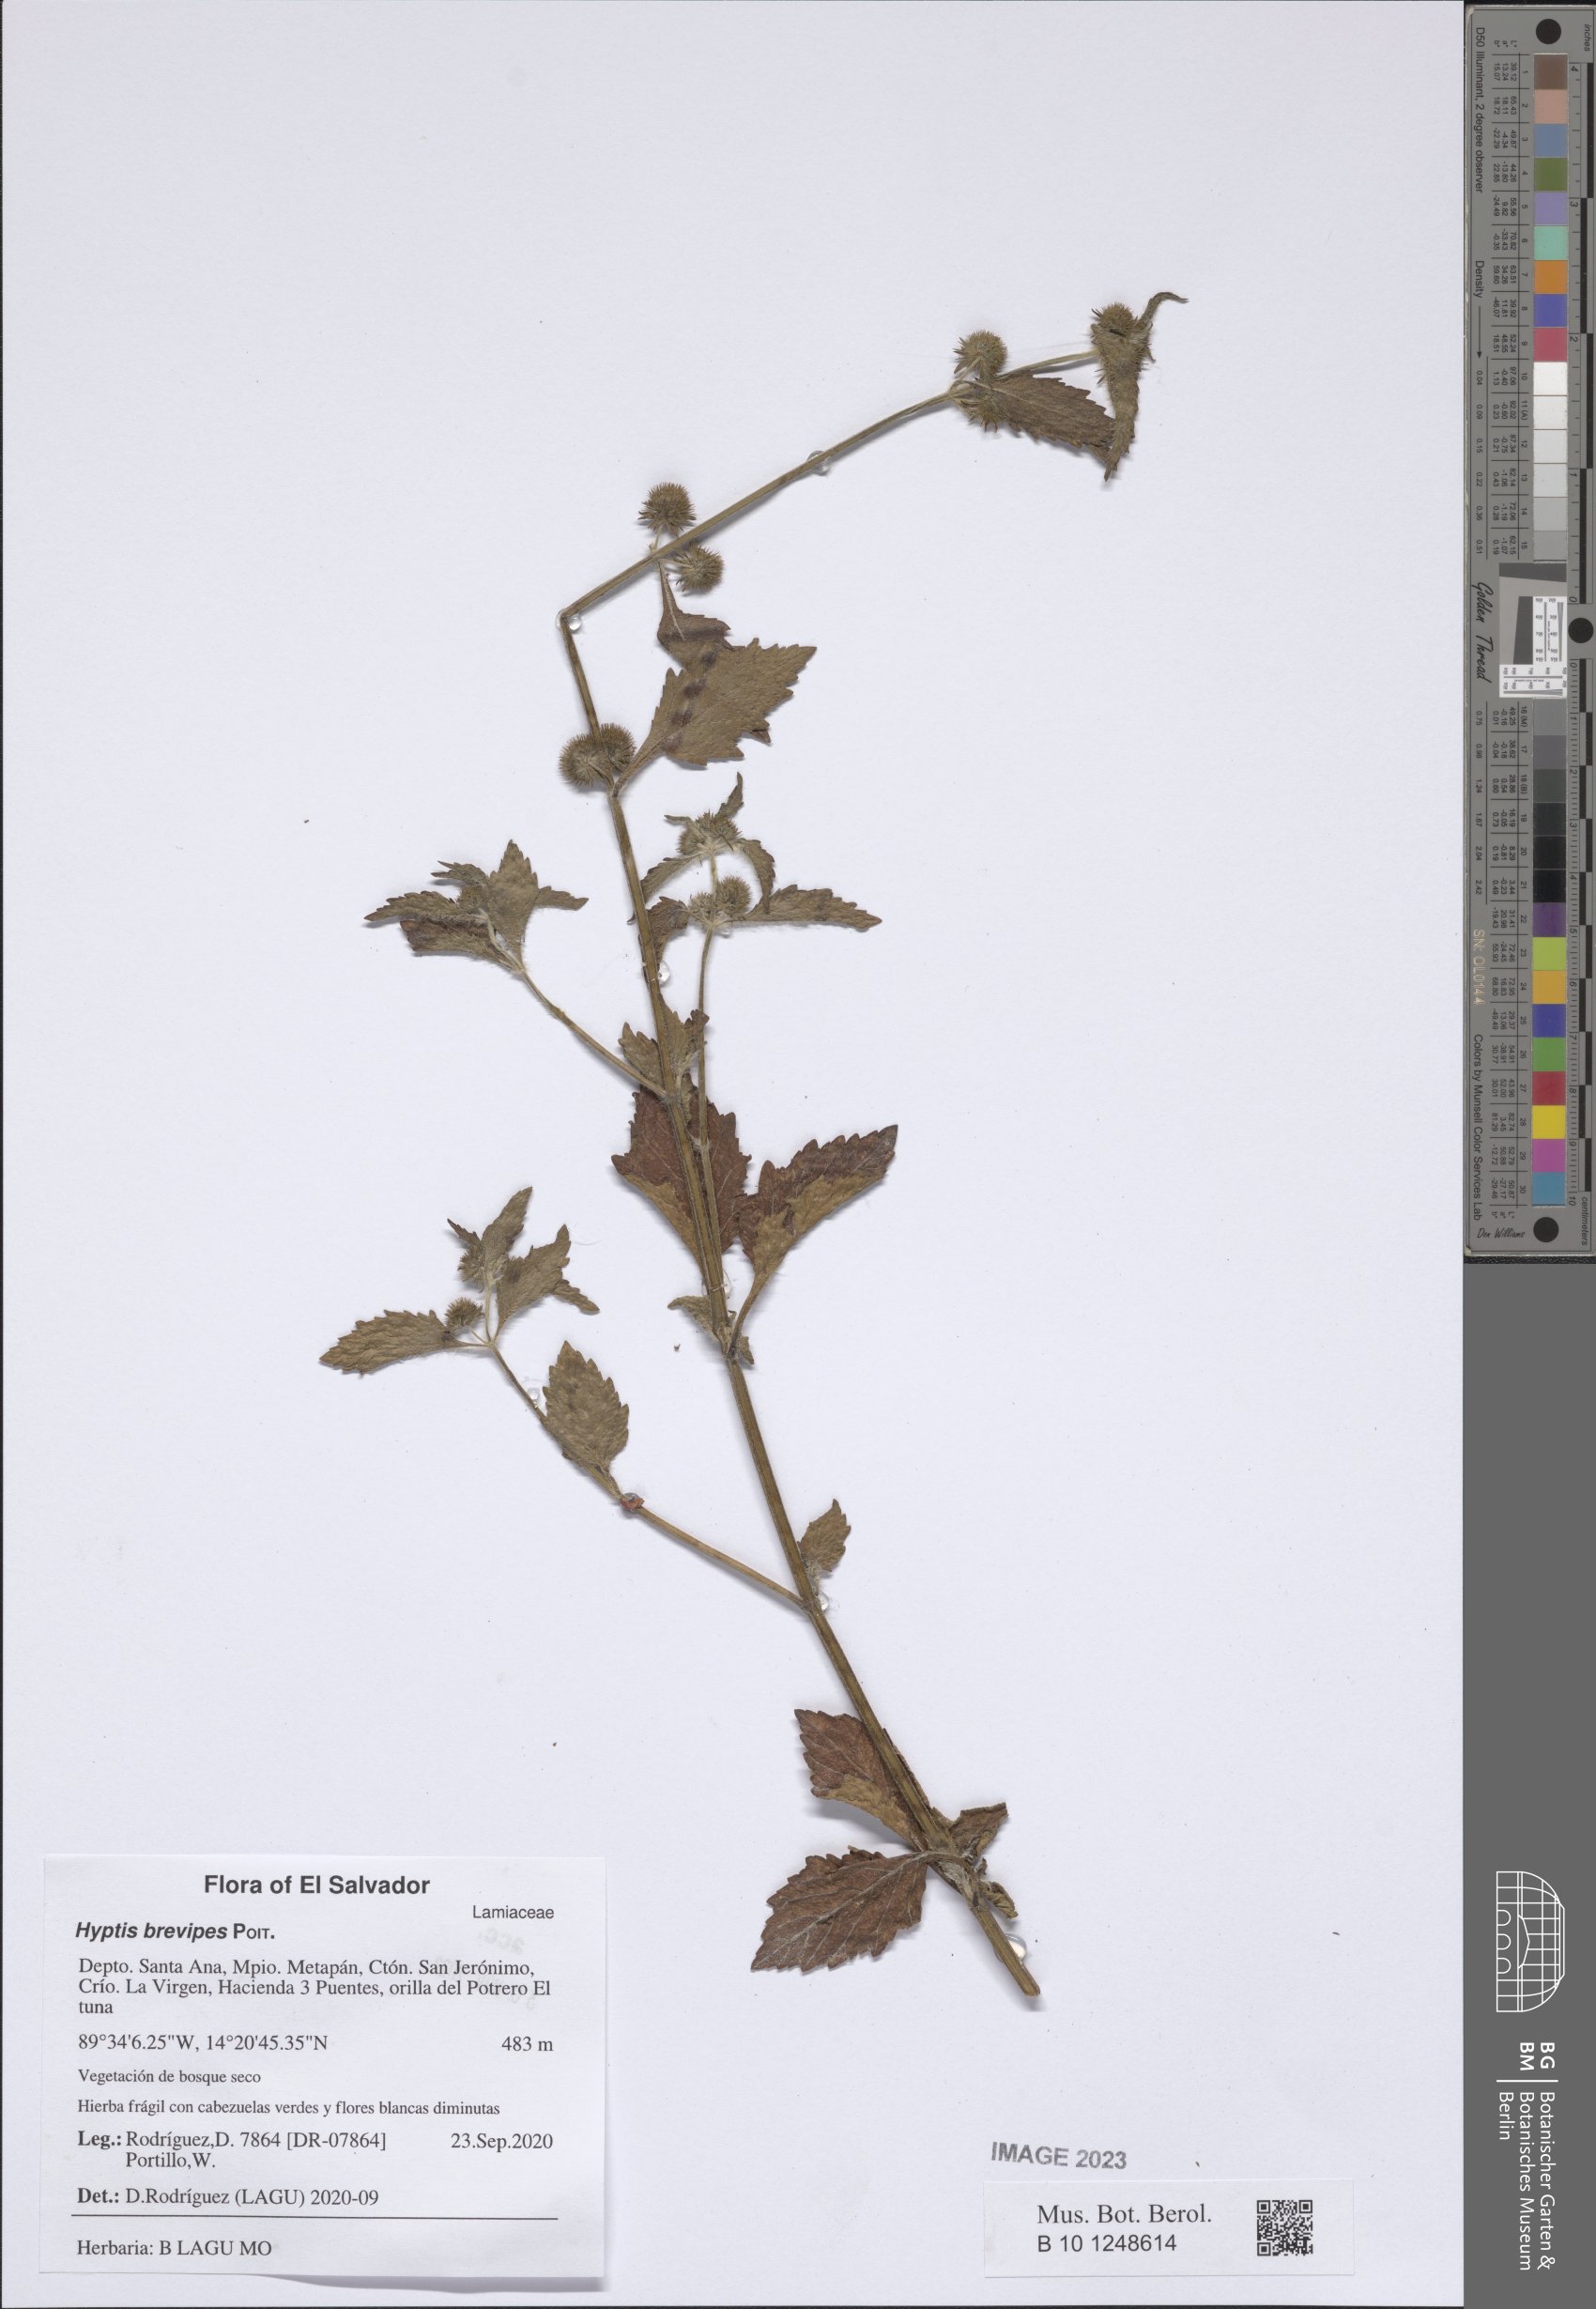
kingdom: Plantae
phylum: Tracheophyta
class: Magnoliopsida
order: Lamiales
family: Lamiaceae
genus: Hyptis
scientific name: Hyptis brevipes
